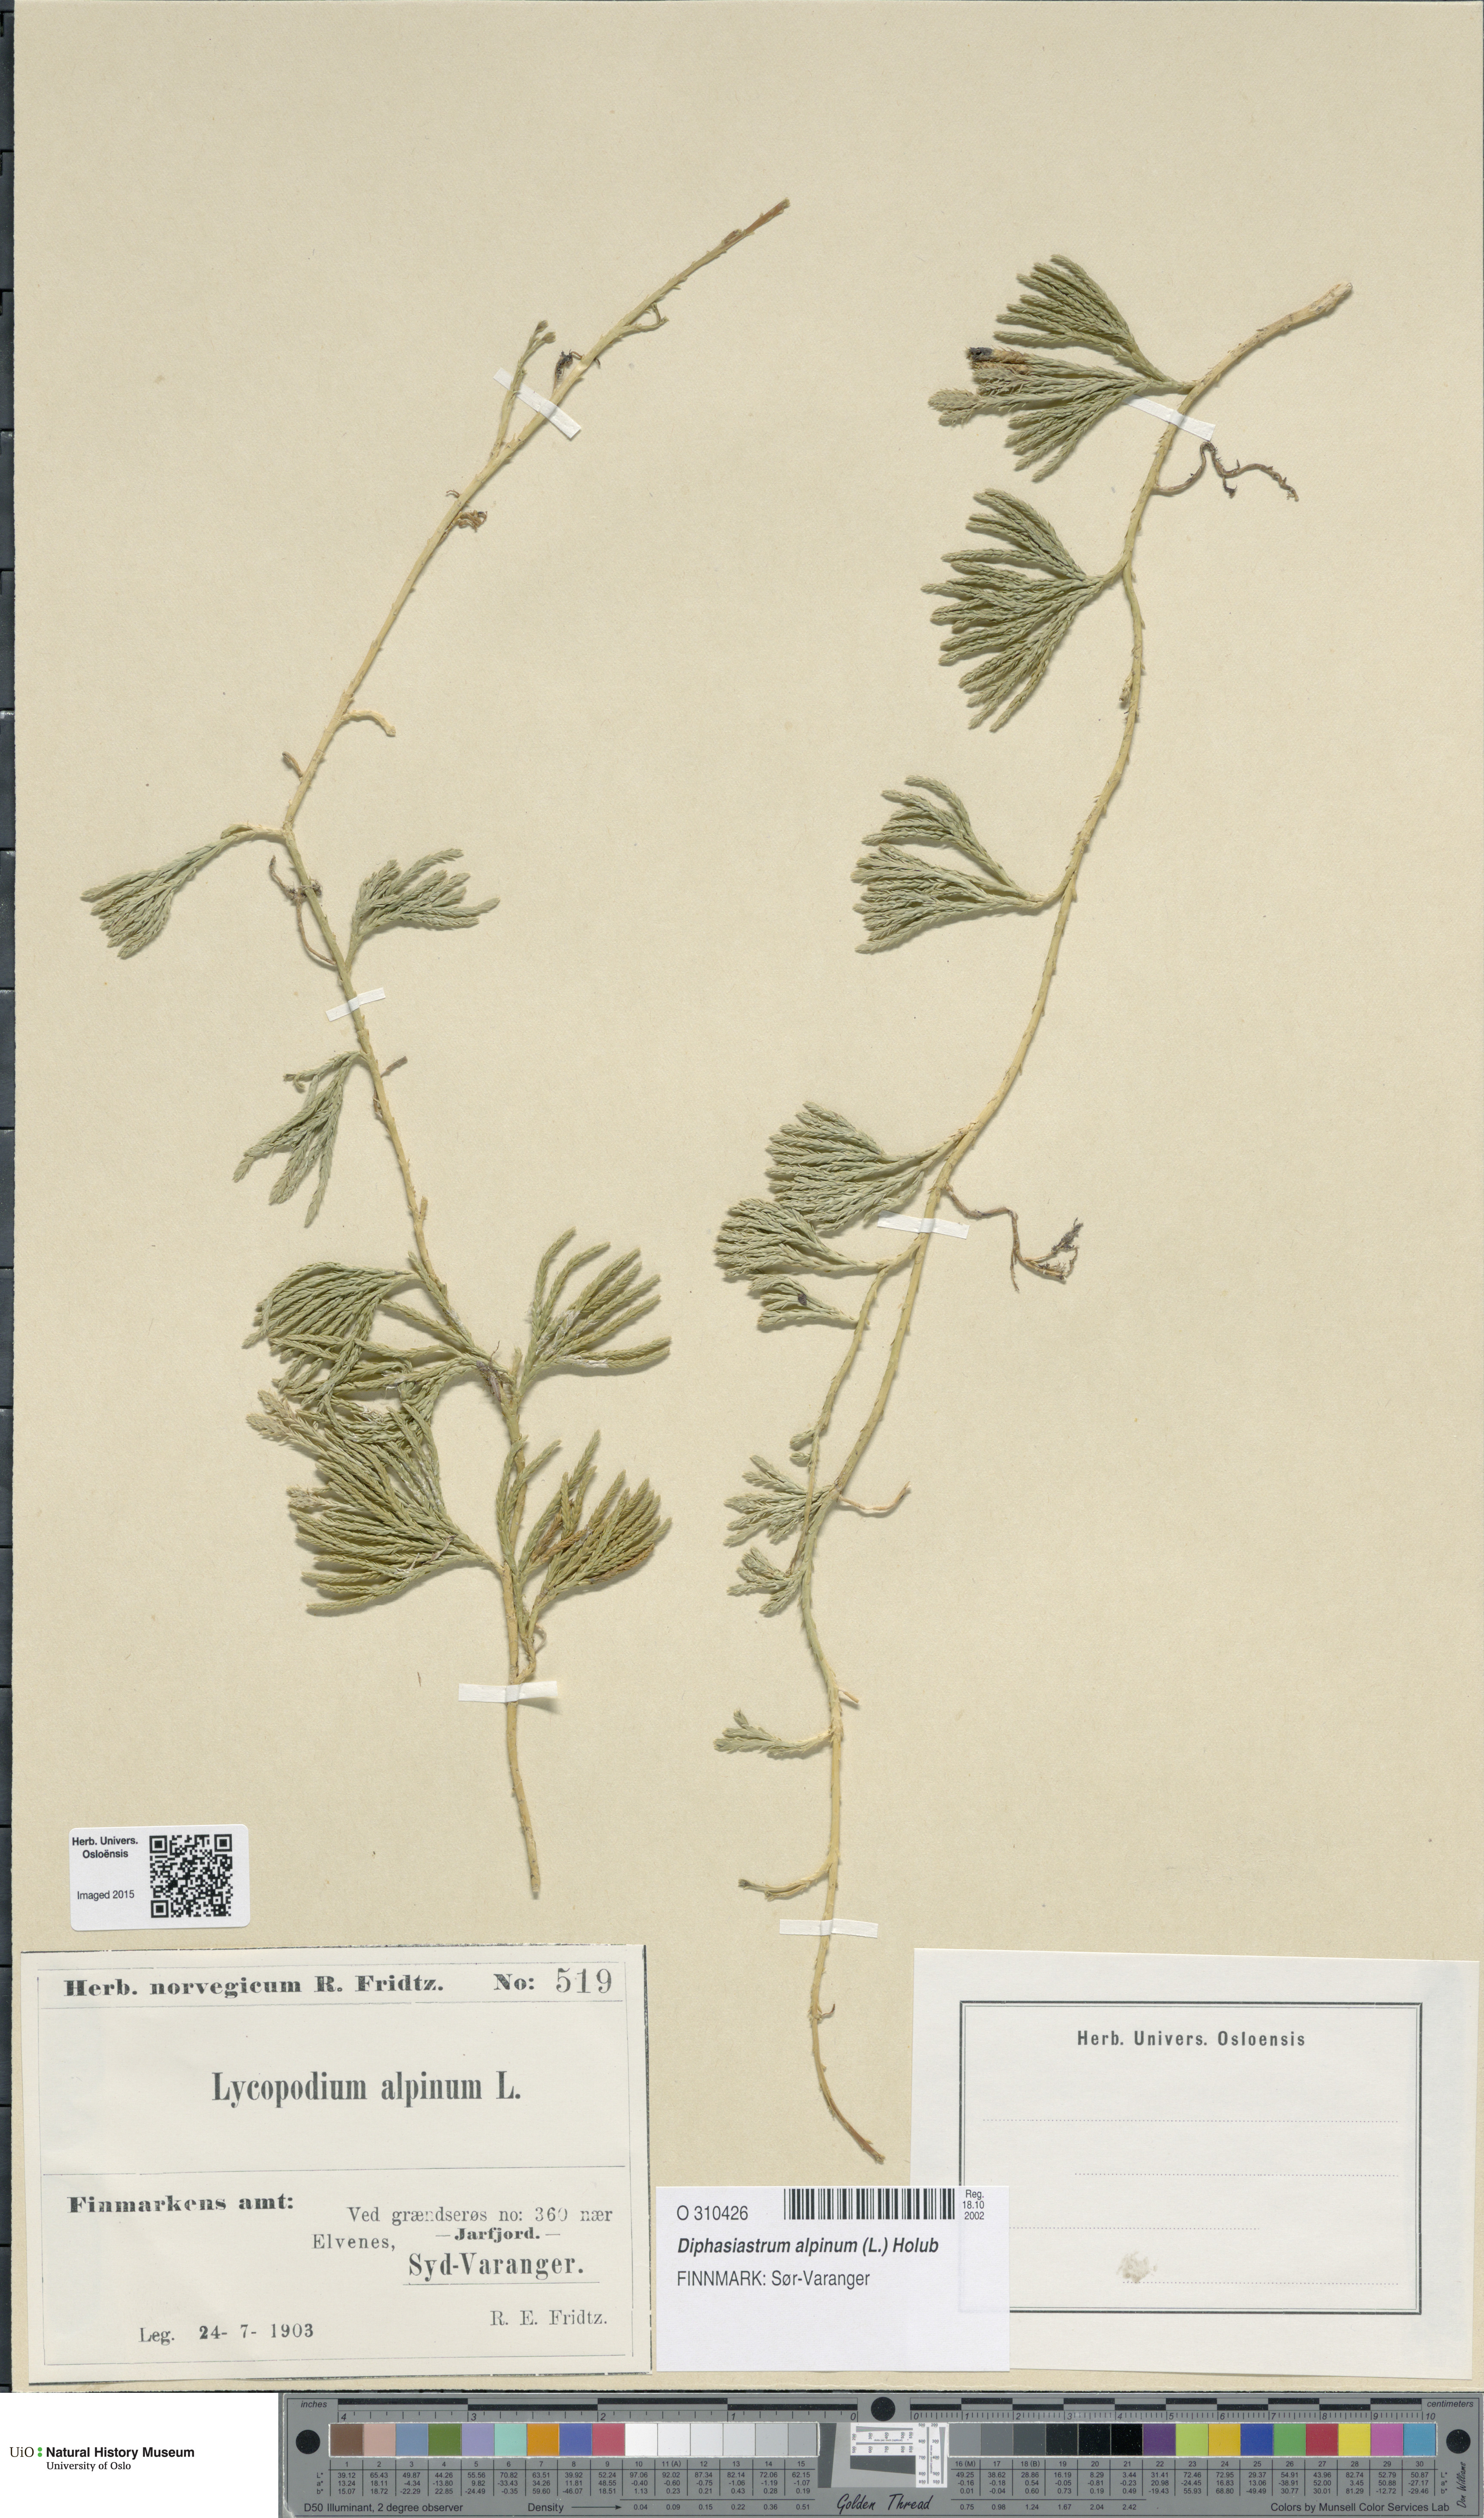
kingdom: Plantae
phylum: Tracheophyta
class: Lycopodiopsida
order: Lycopodiales
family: Lycopodiaceae
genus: Diphasiastrum
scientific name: Diphasiastrum alpinum
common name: Alpine clubmoss
